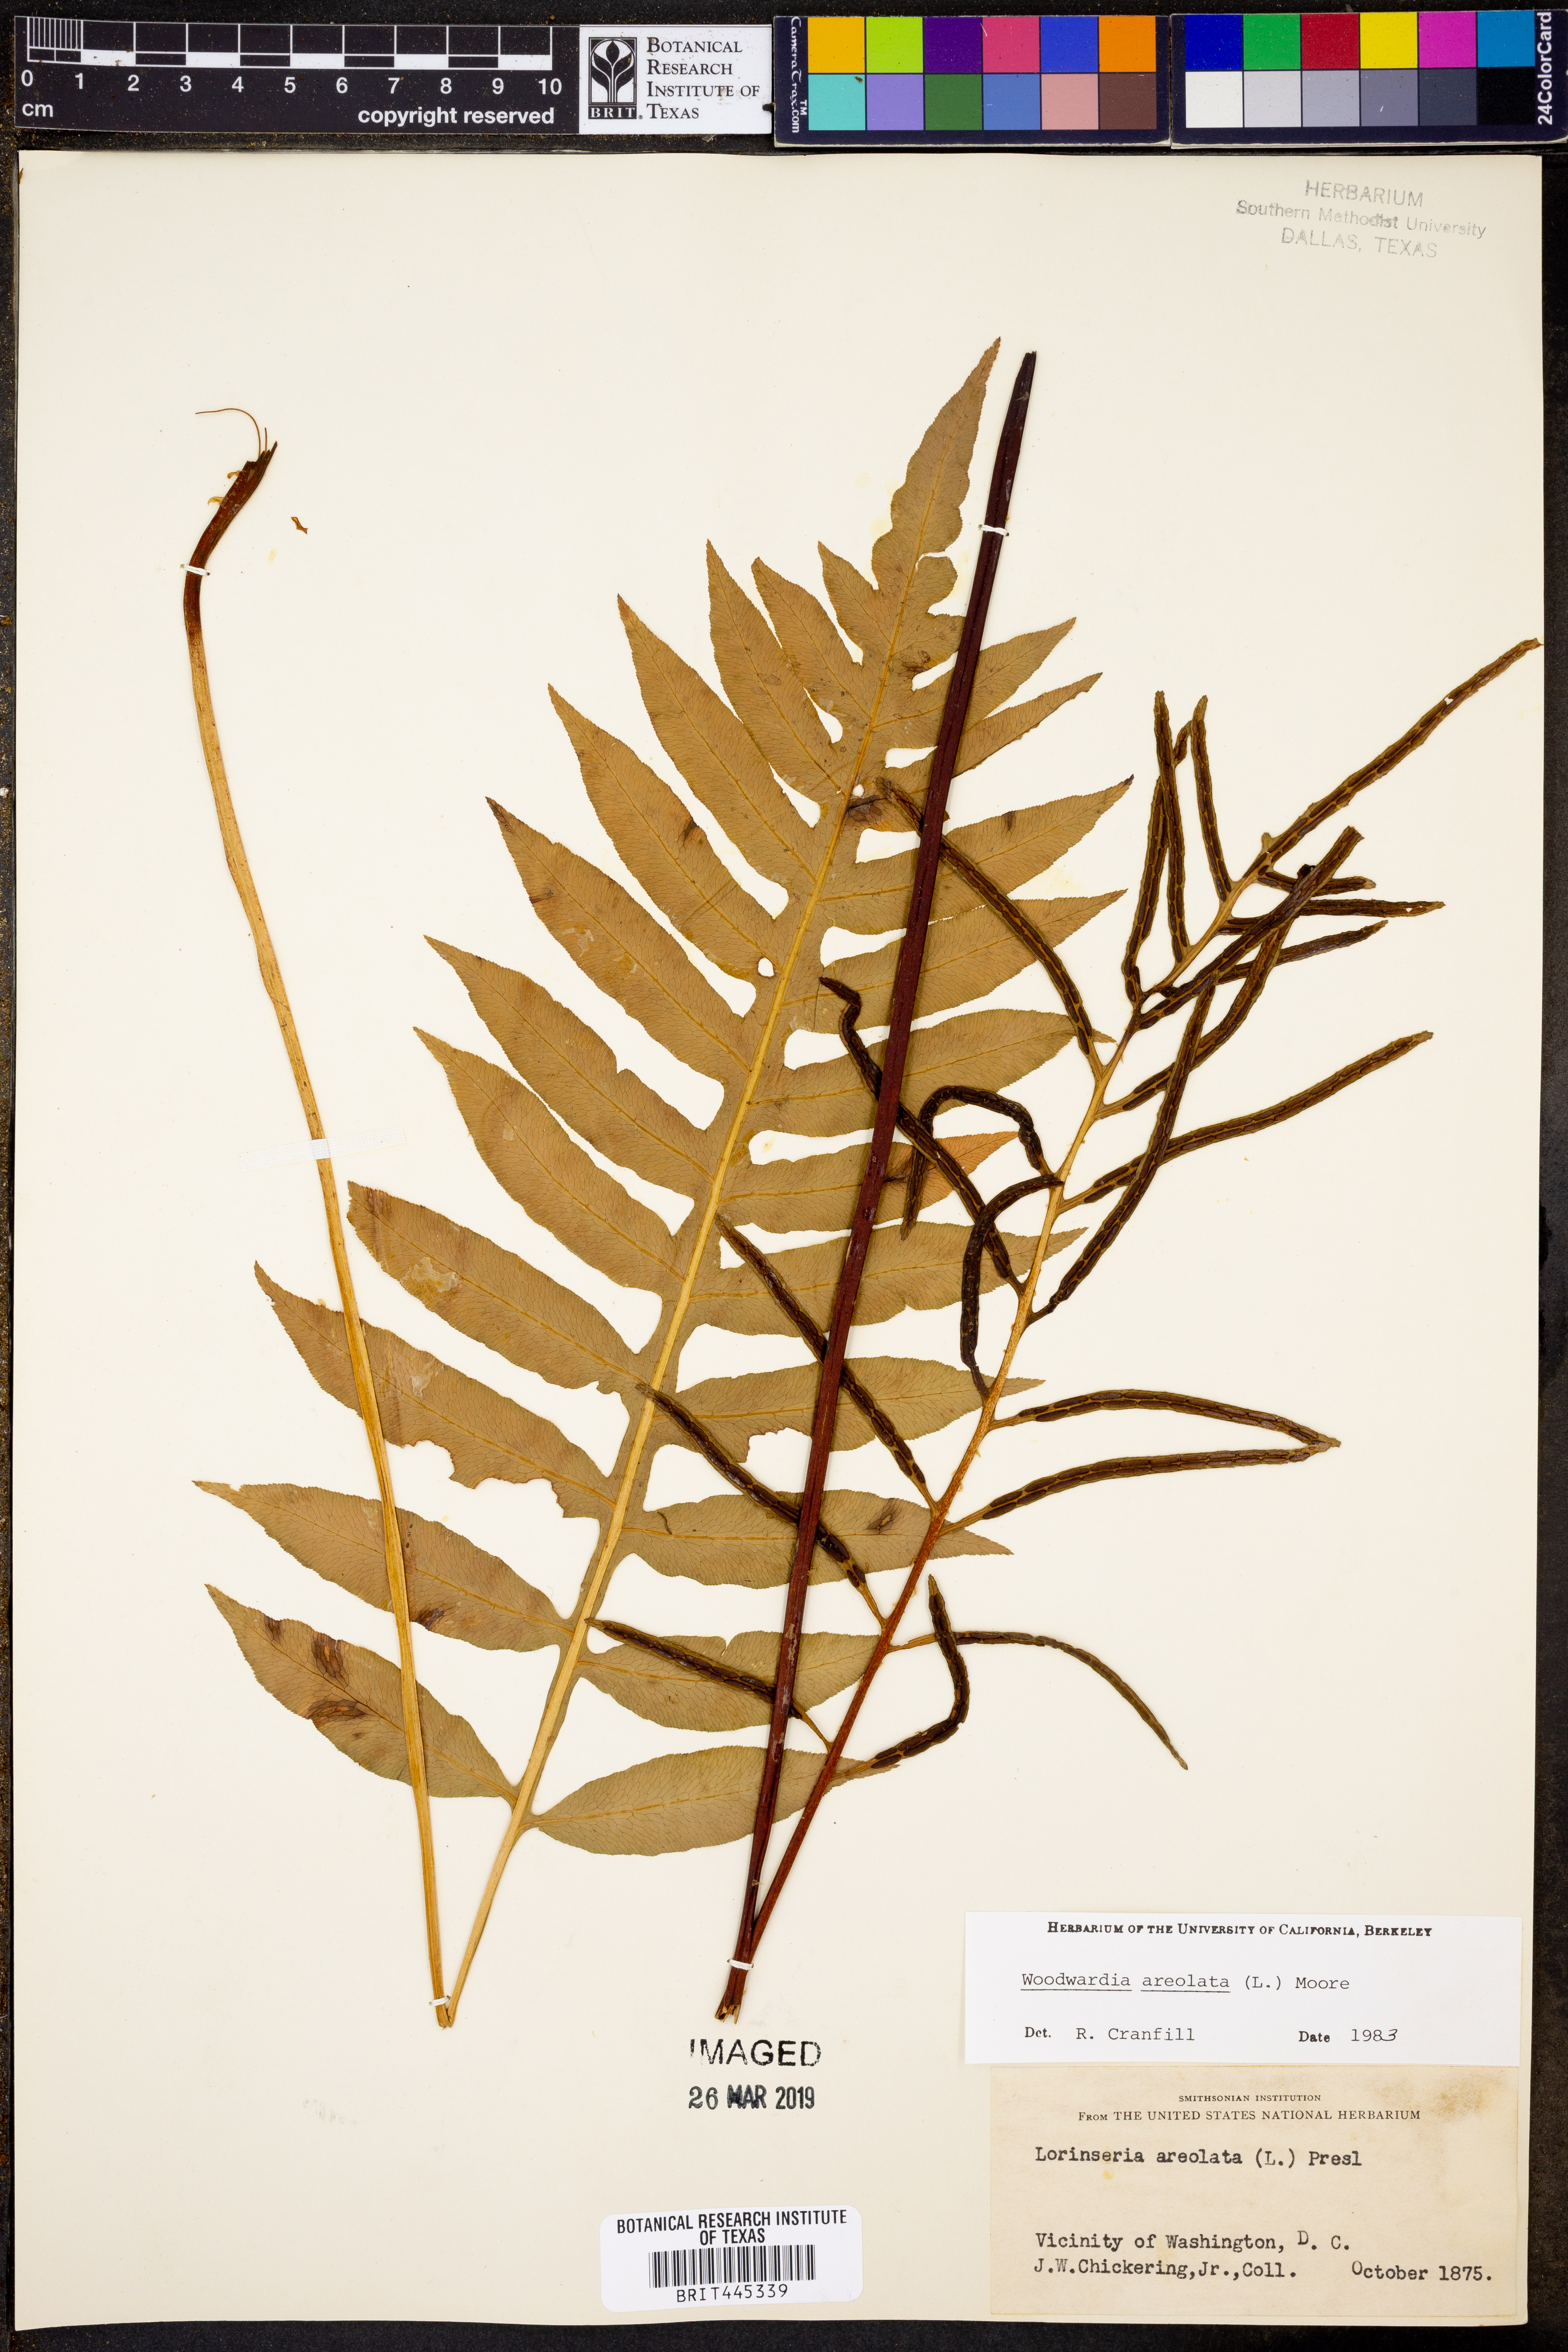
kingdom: Plantae
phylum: Tracheophyta
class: Polypodiopsida
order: Polypodiales
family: Blechnaceae
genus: Lorinseria
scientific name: Lorinseria areolata
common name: Dwarf chain fern
